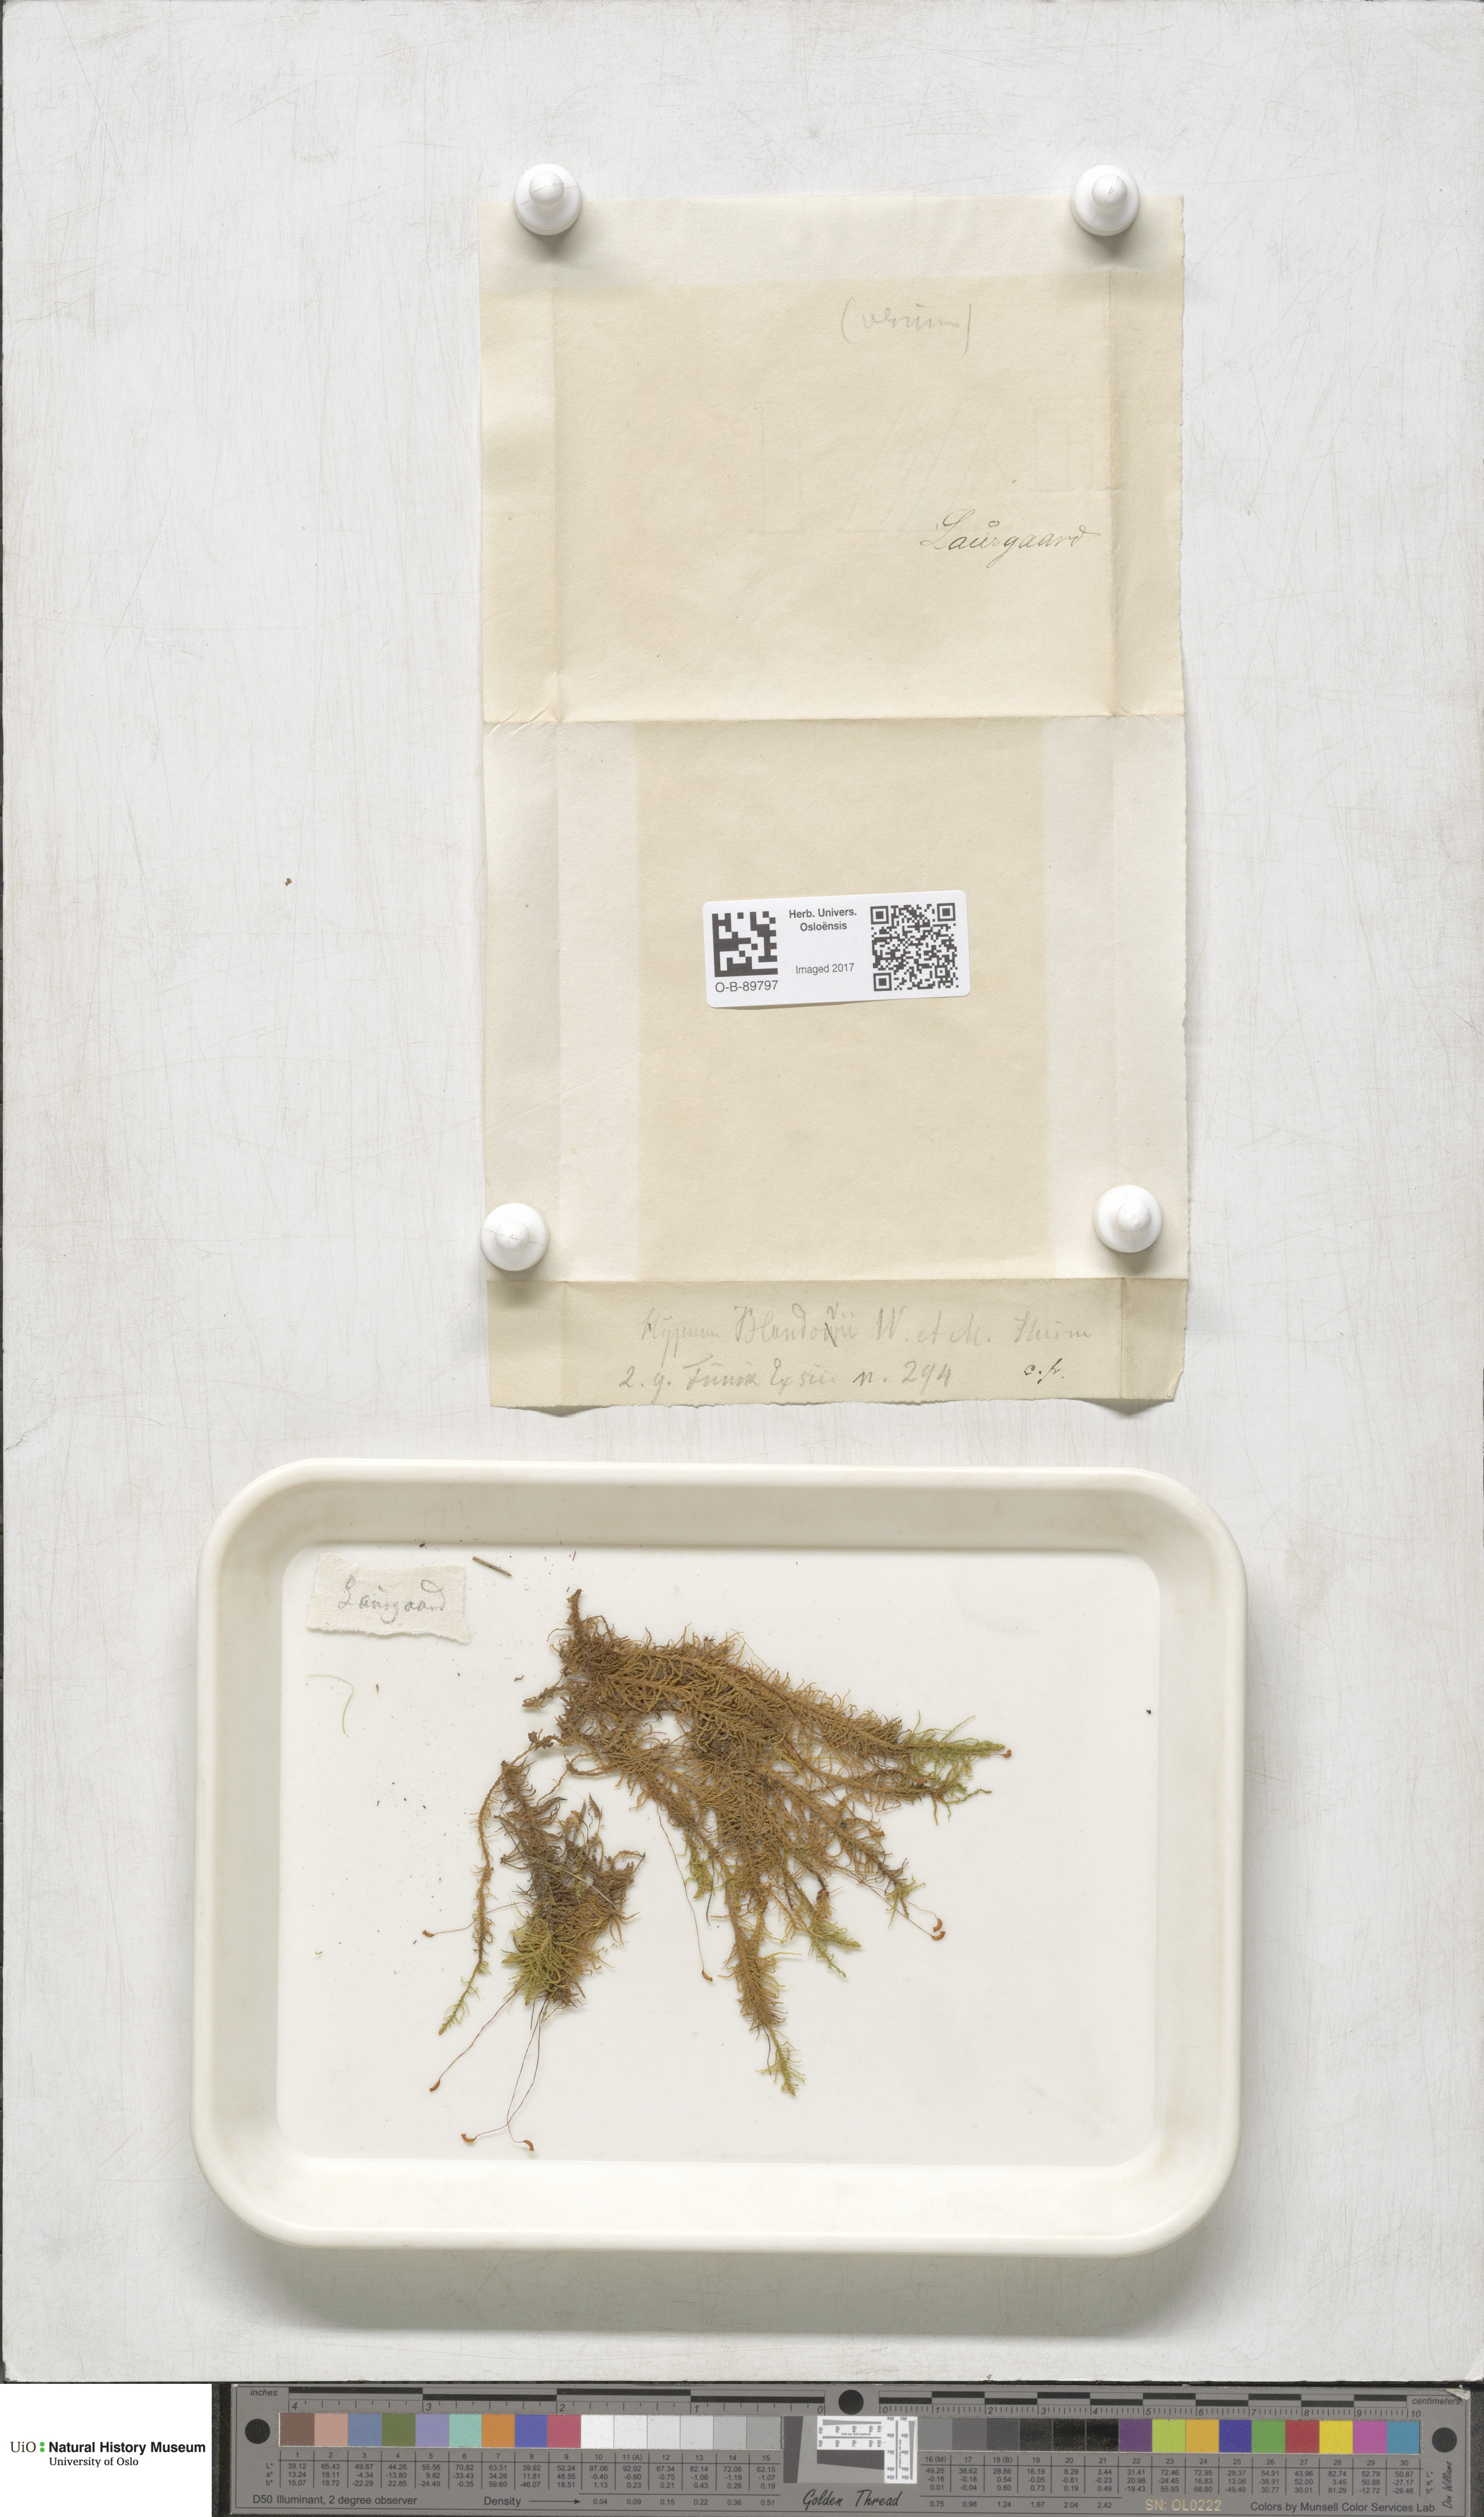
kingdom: Plantae
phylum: Bryophyta
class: Bryopsida
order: Hypnales
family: Helodiaceae
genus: Helodium
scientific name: Helodium blandowii
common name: Blandow's tamarisk-moss
